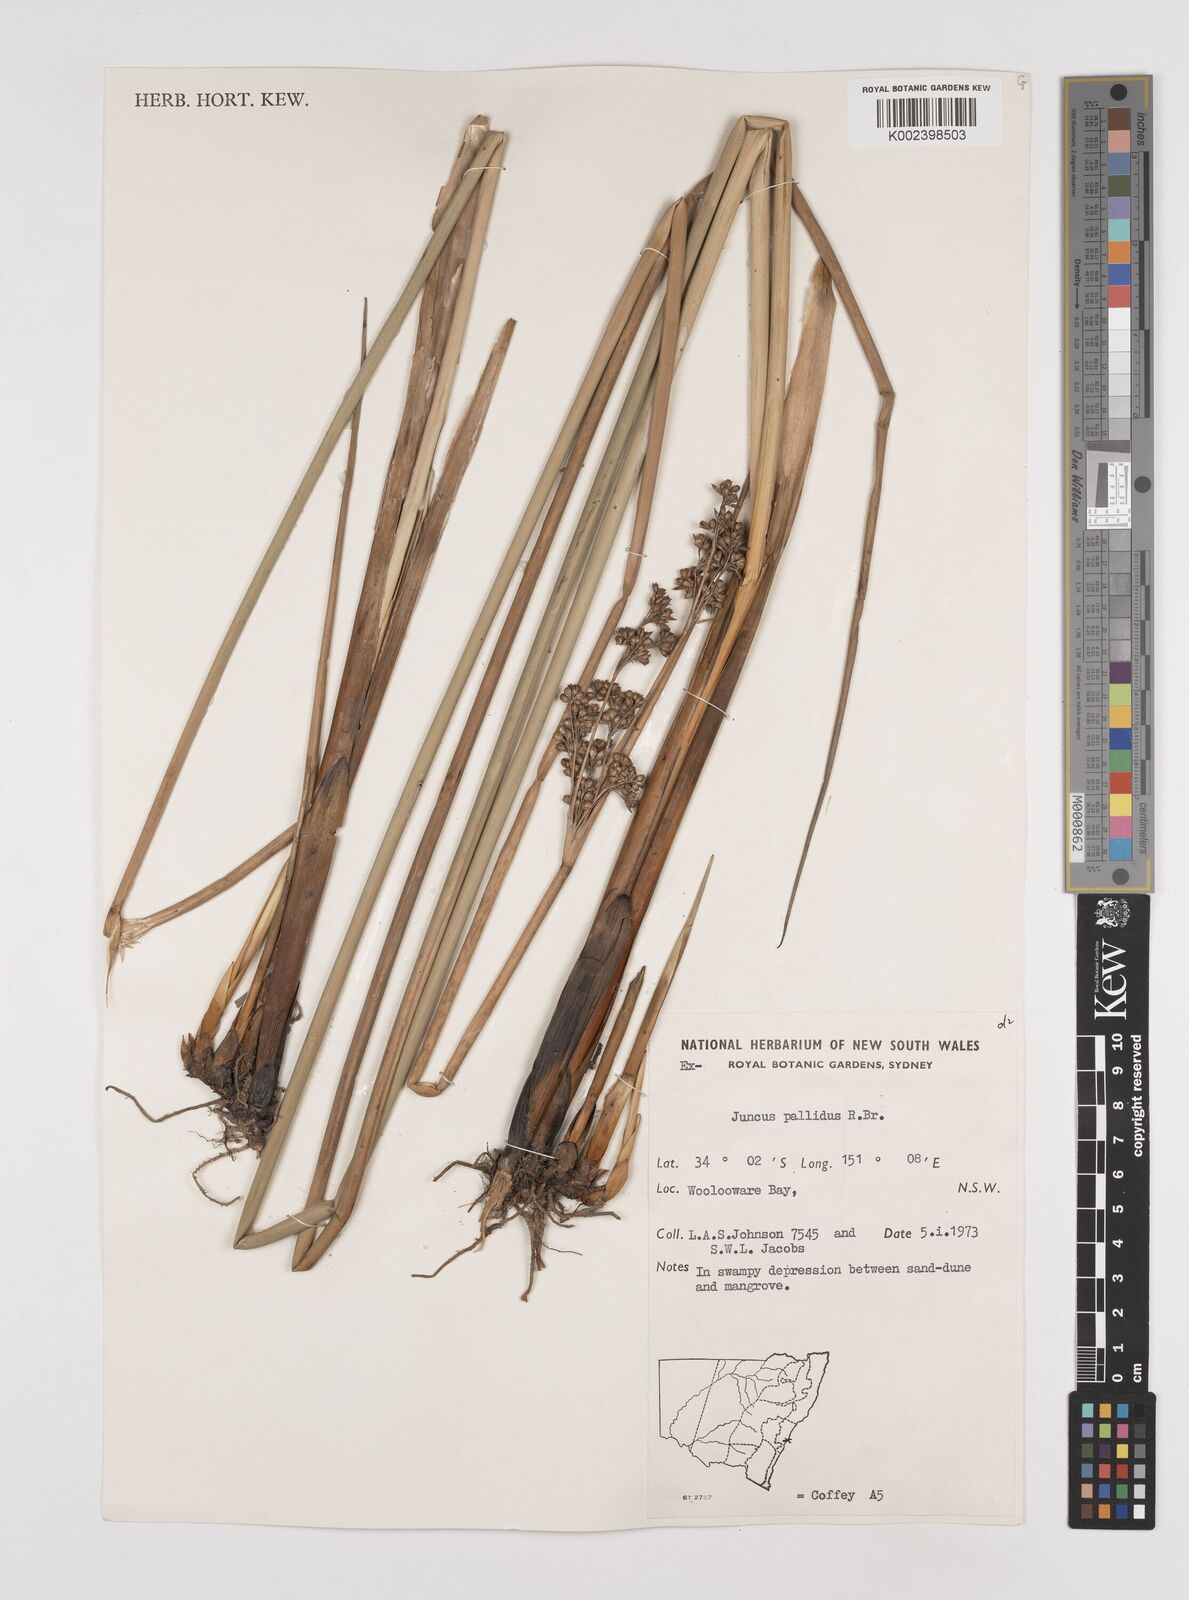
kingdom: Plantae
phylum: Tracheophyta
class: Liliopsida
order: Poales
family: Juncaceae
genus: Juncus
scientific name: Juncus pallidus
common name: Great soft-rush
